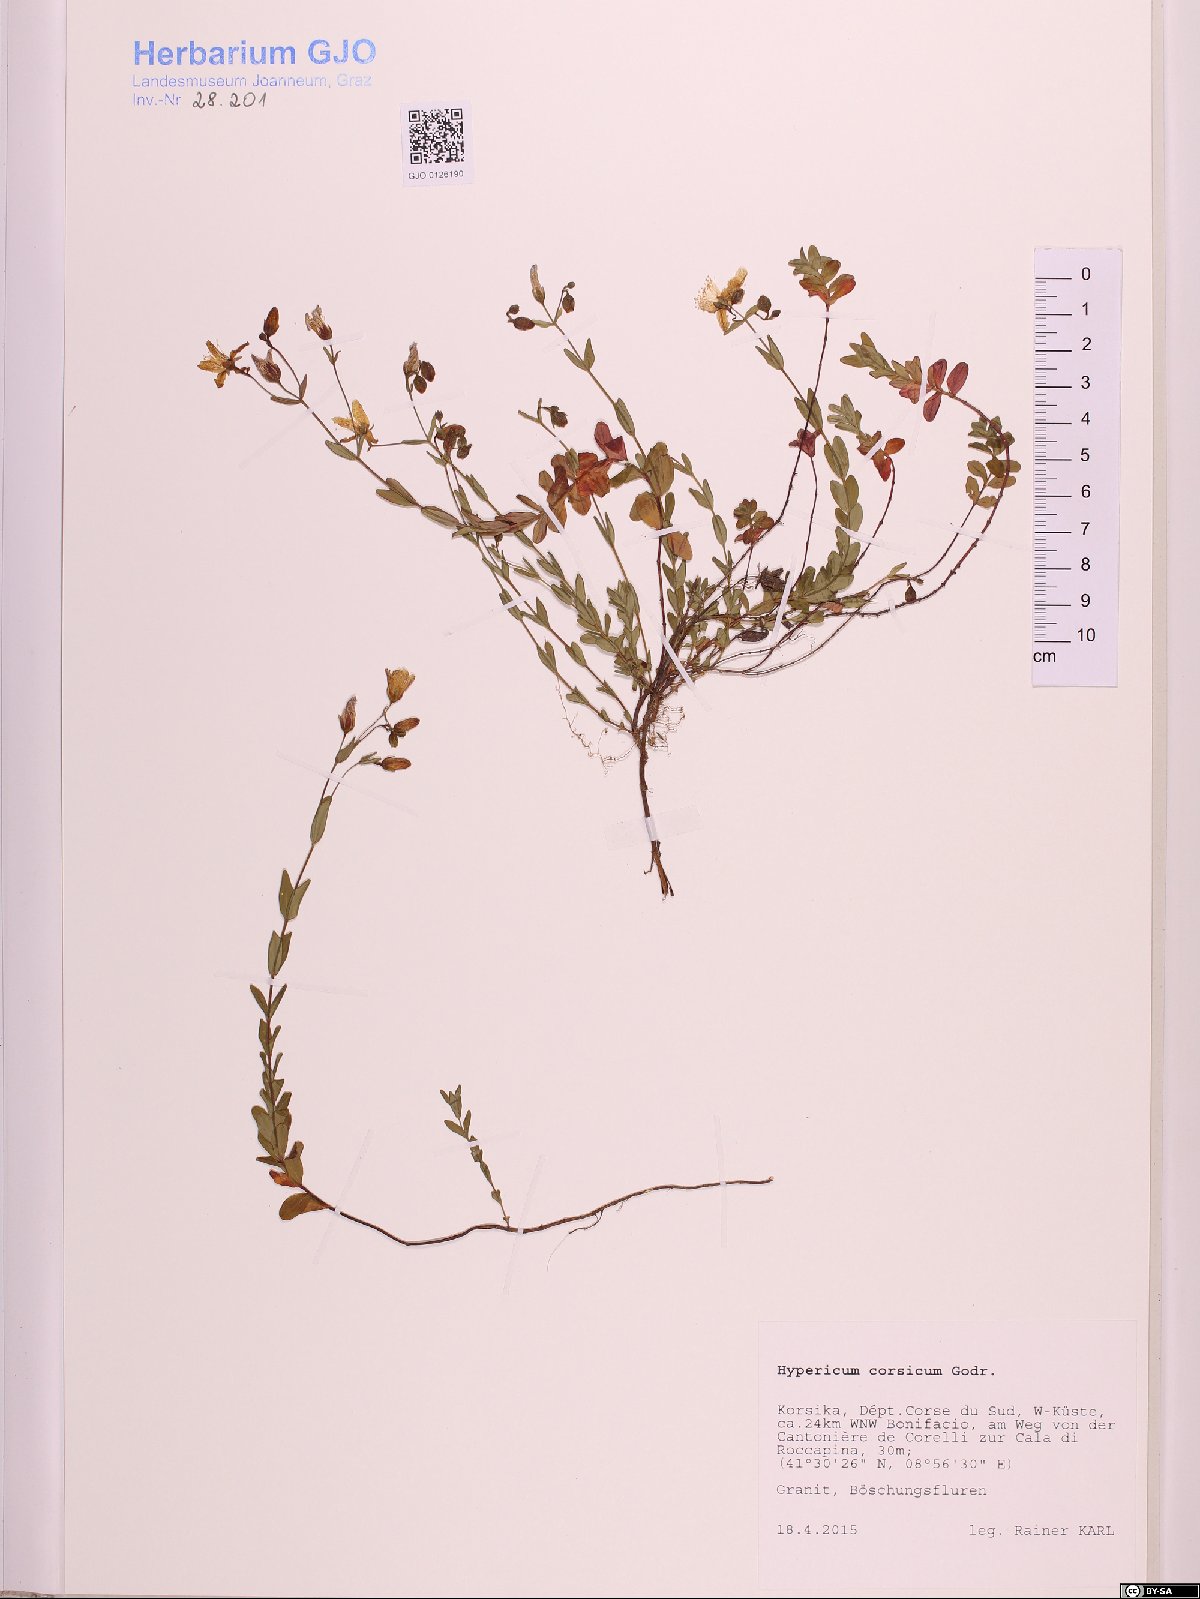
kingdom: Plantae
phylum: Tracheophyta
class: Magnoliopsida
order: Malpighiales
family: Hypericaceae
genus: Hypericum
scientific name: Hypericum tetrapterum
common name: Square-stalked st. john's-wort
